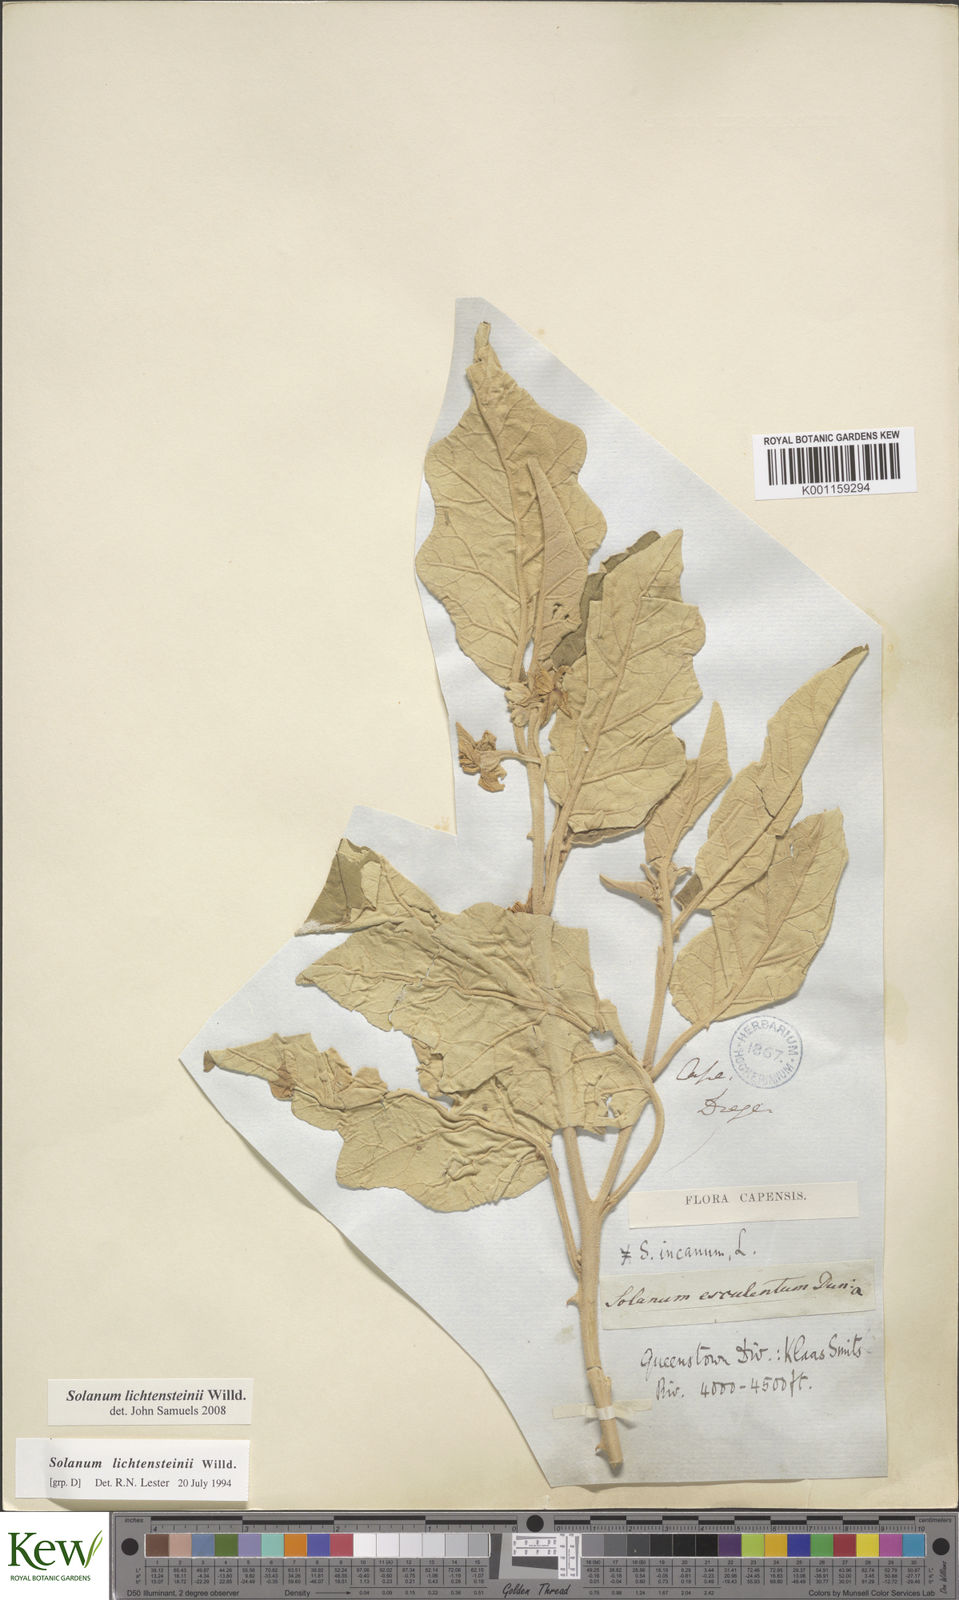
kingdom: Plantae
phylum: Tracheophyta
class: Magnoliopsida
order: Solanales
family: Solanaceae
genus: Solanum
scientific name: Solanum lichtensteinii
